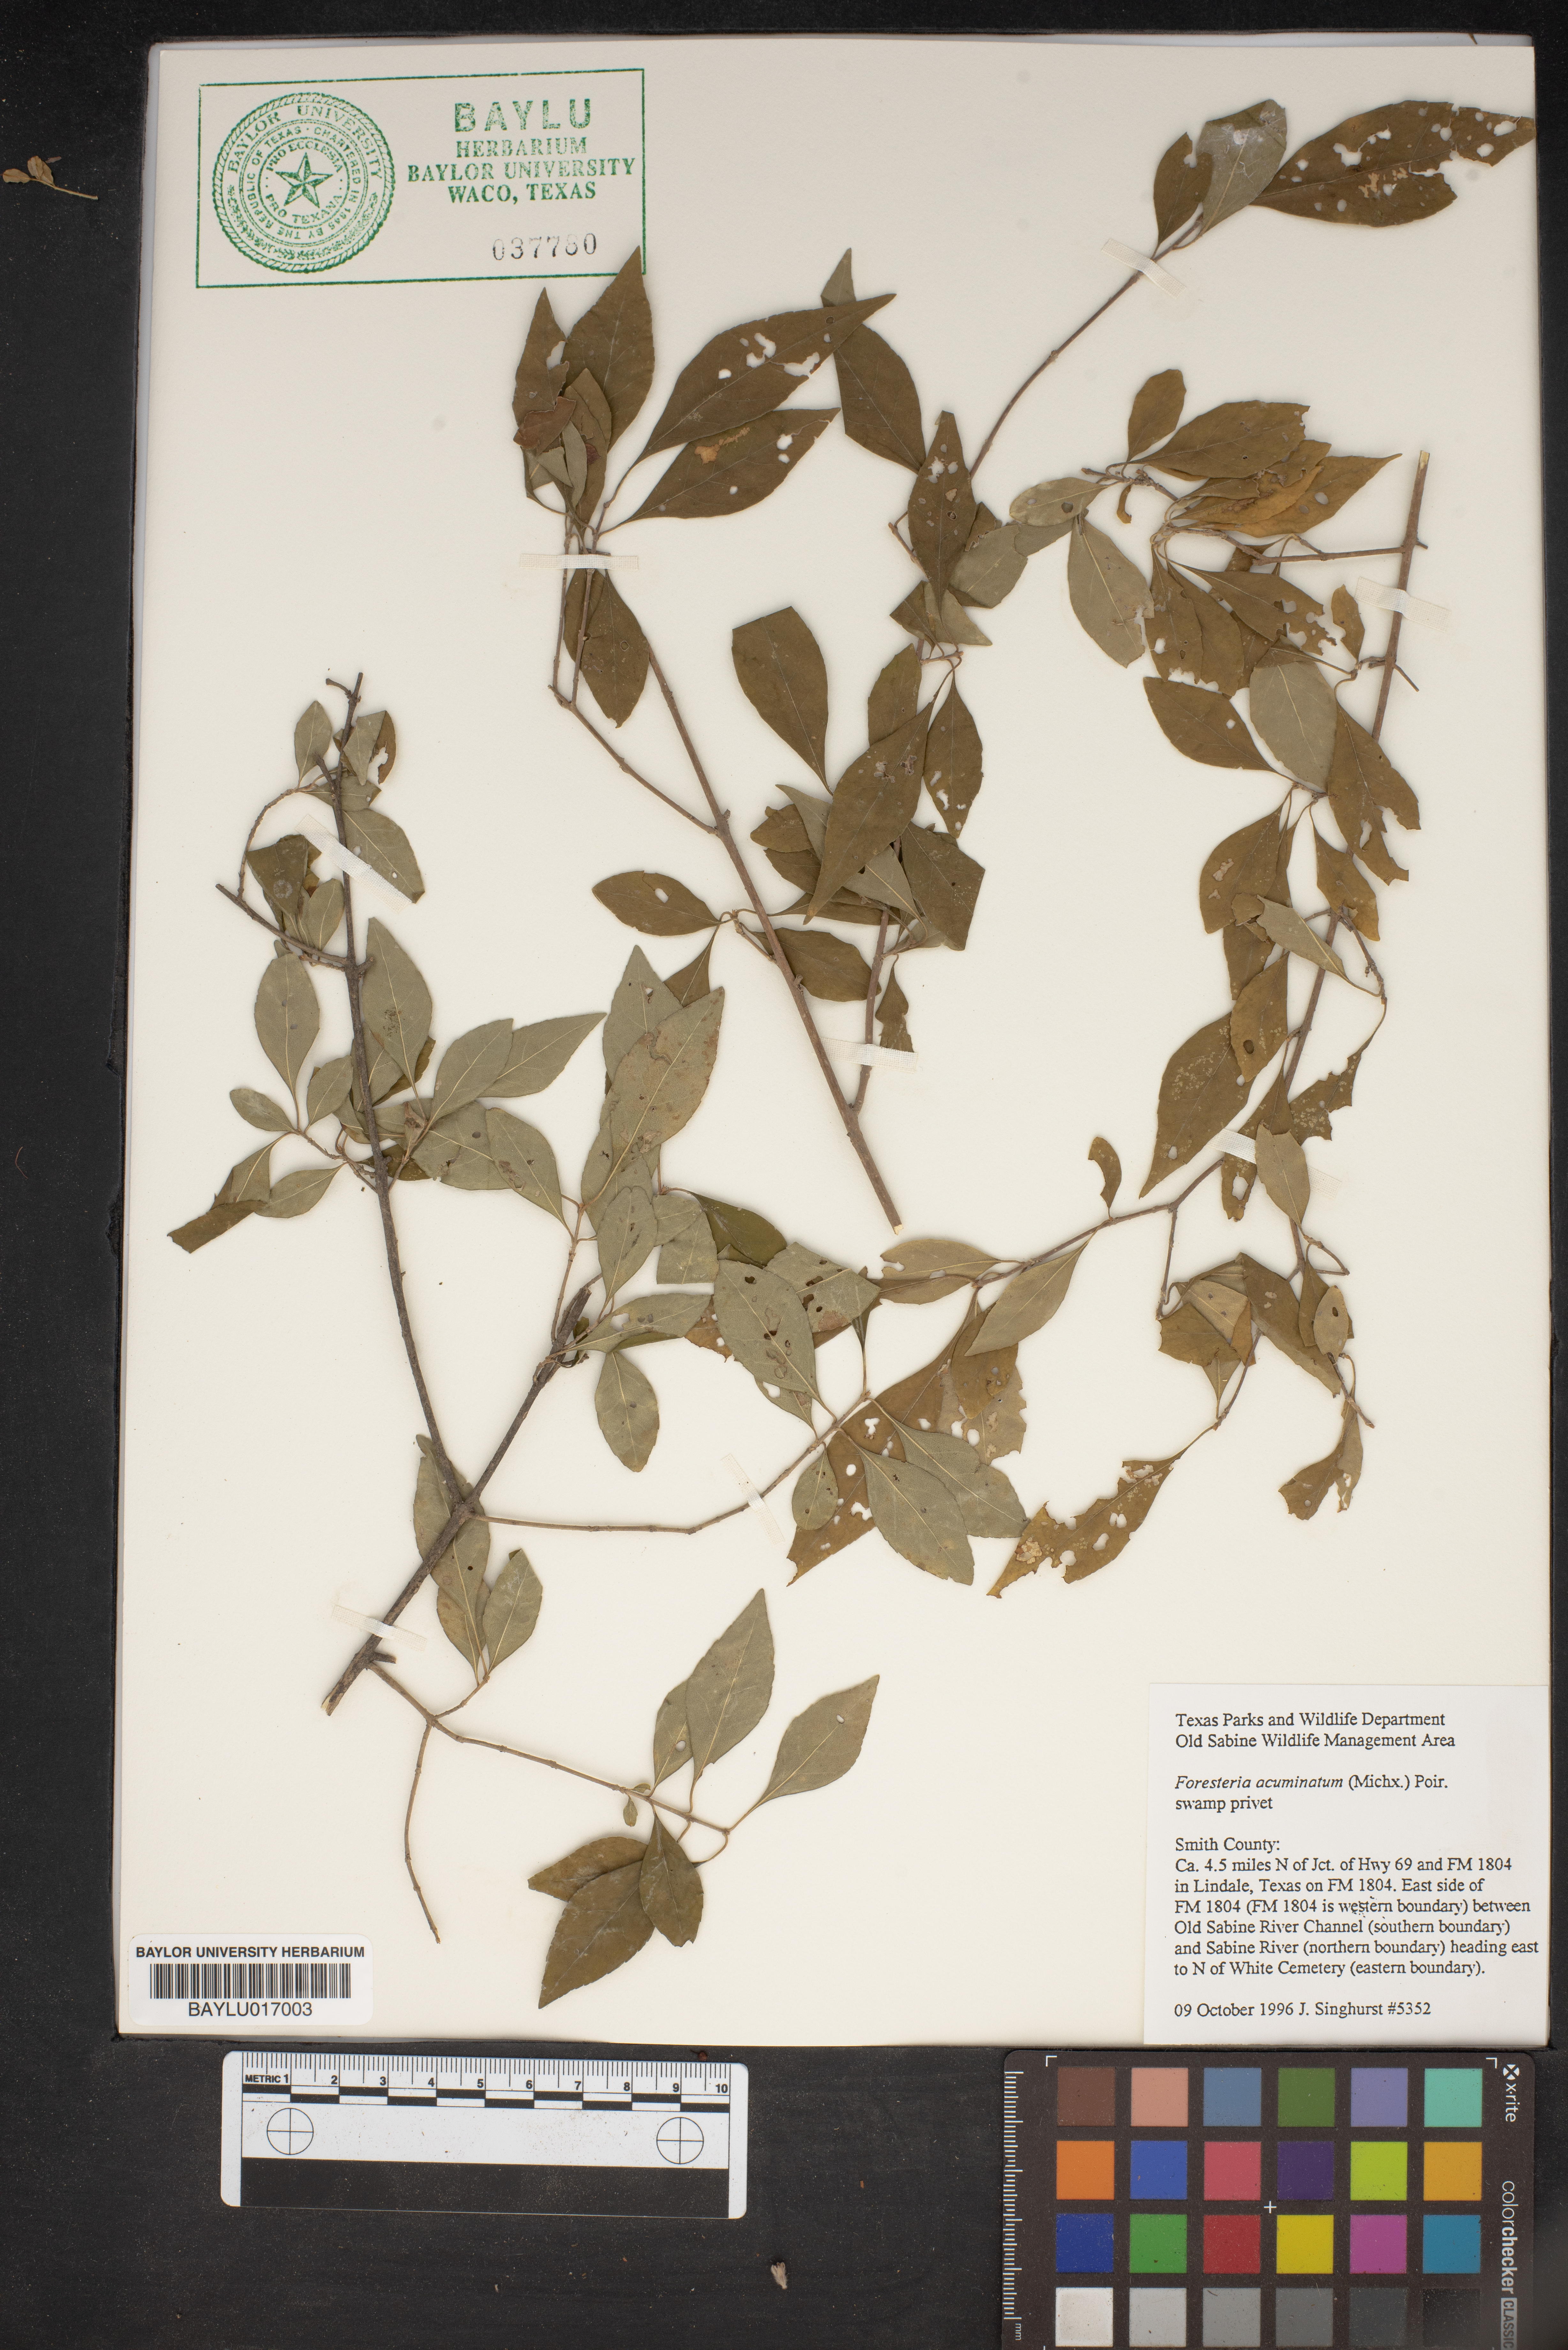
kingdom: Plantae
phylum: Tracheophyta
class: Magnoliopsida
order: Lamiales
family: Oleaceae
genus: Forestiera
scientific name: Forestiera acuminata
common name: Swamp-privet
